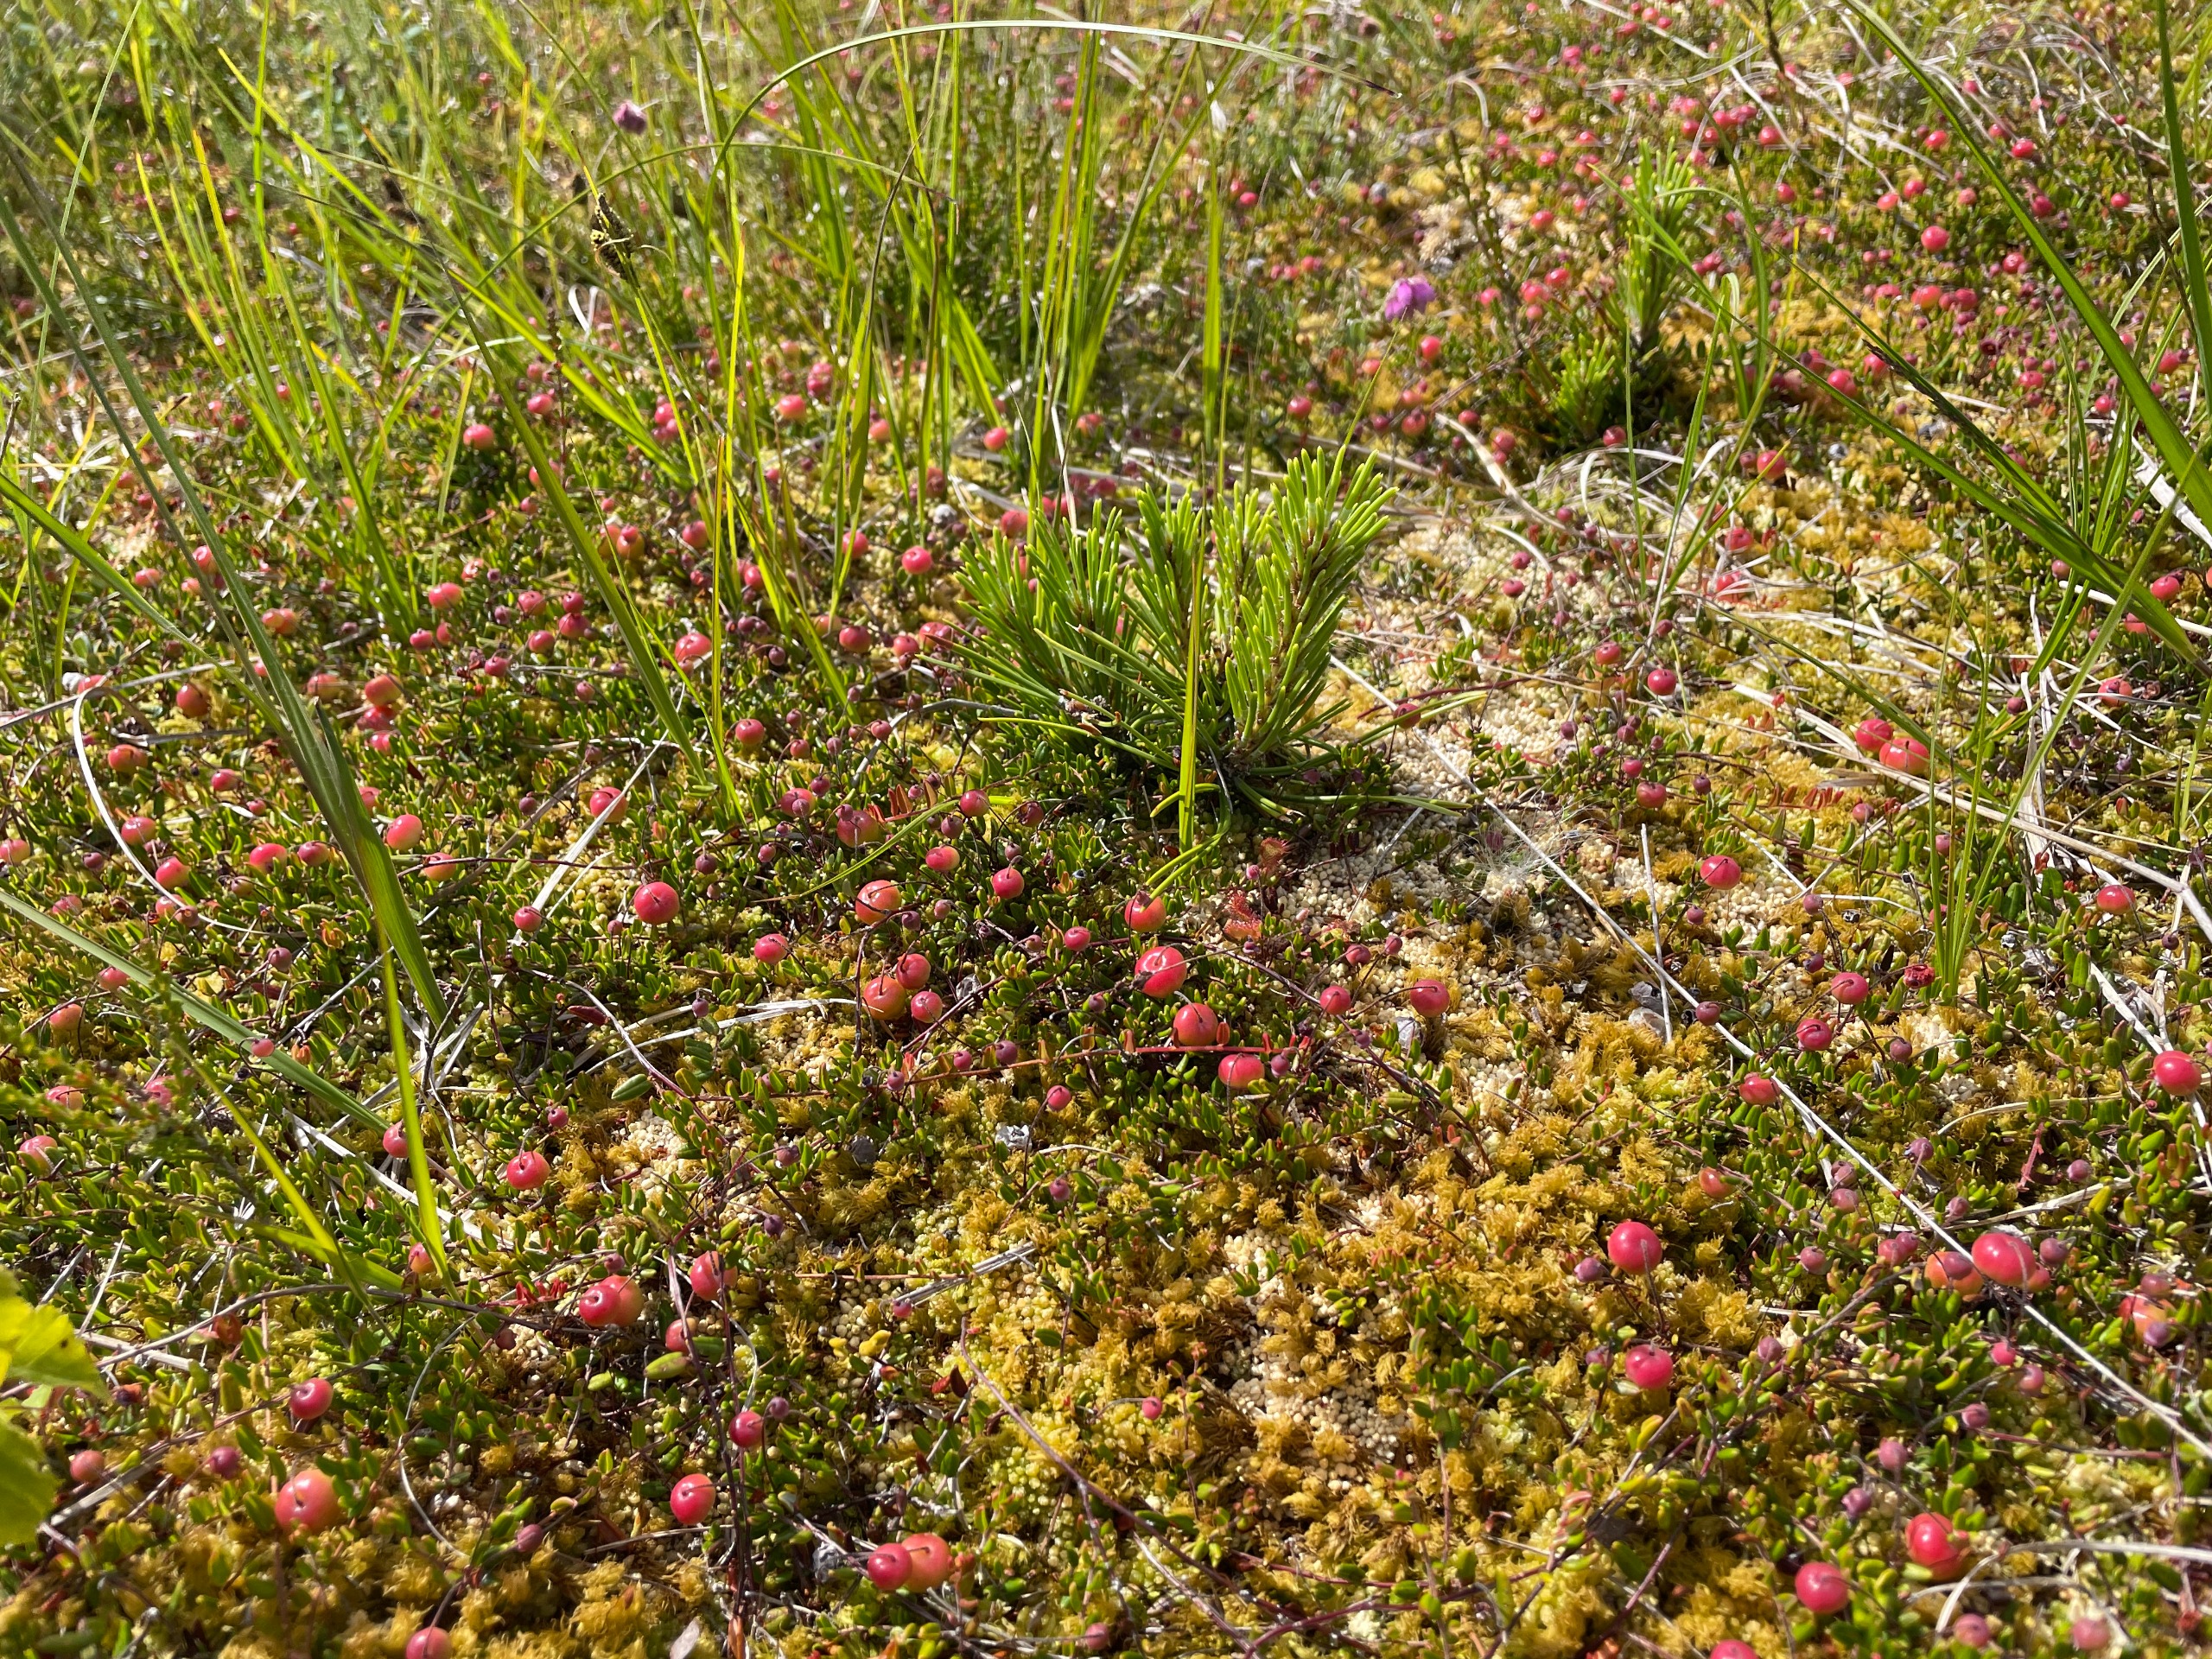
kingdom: Plantae
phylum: Tracheophyta
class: Magnoliopsida
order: Ericales
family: Ericaceae
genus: Vaccinium
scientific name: Vaccinium oxycoccos
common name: Tranebær
